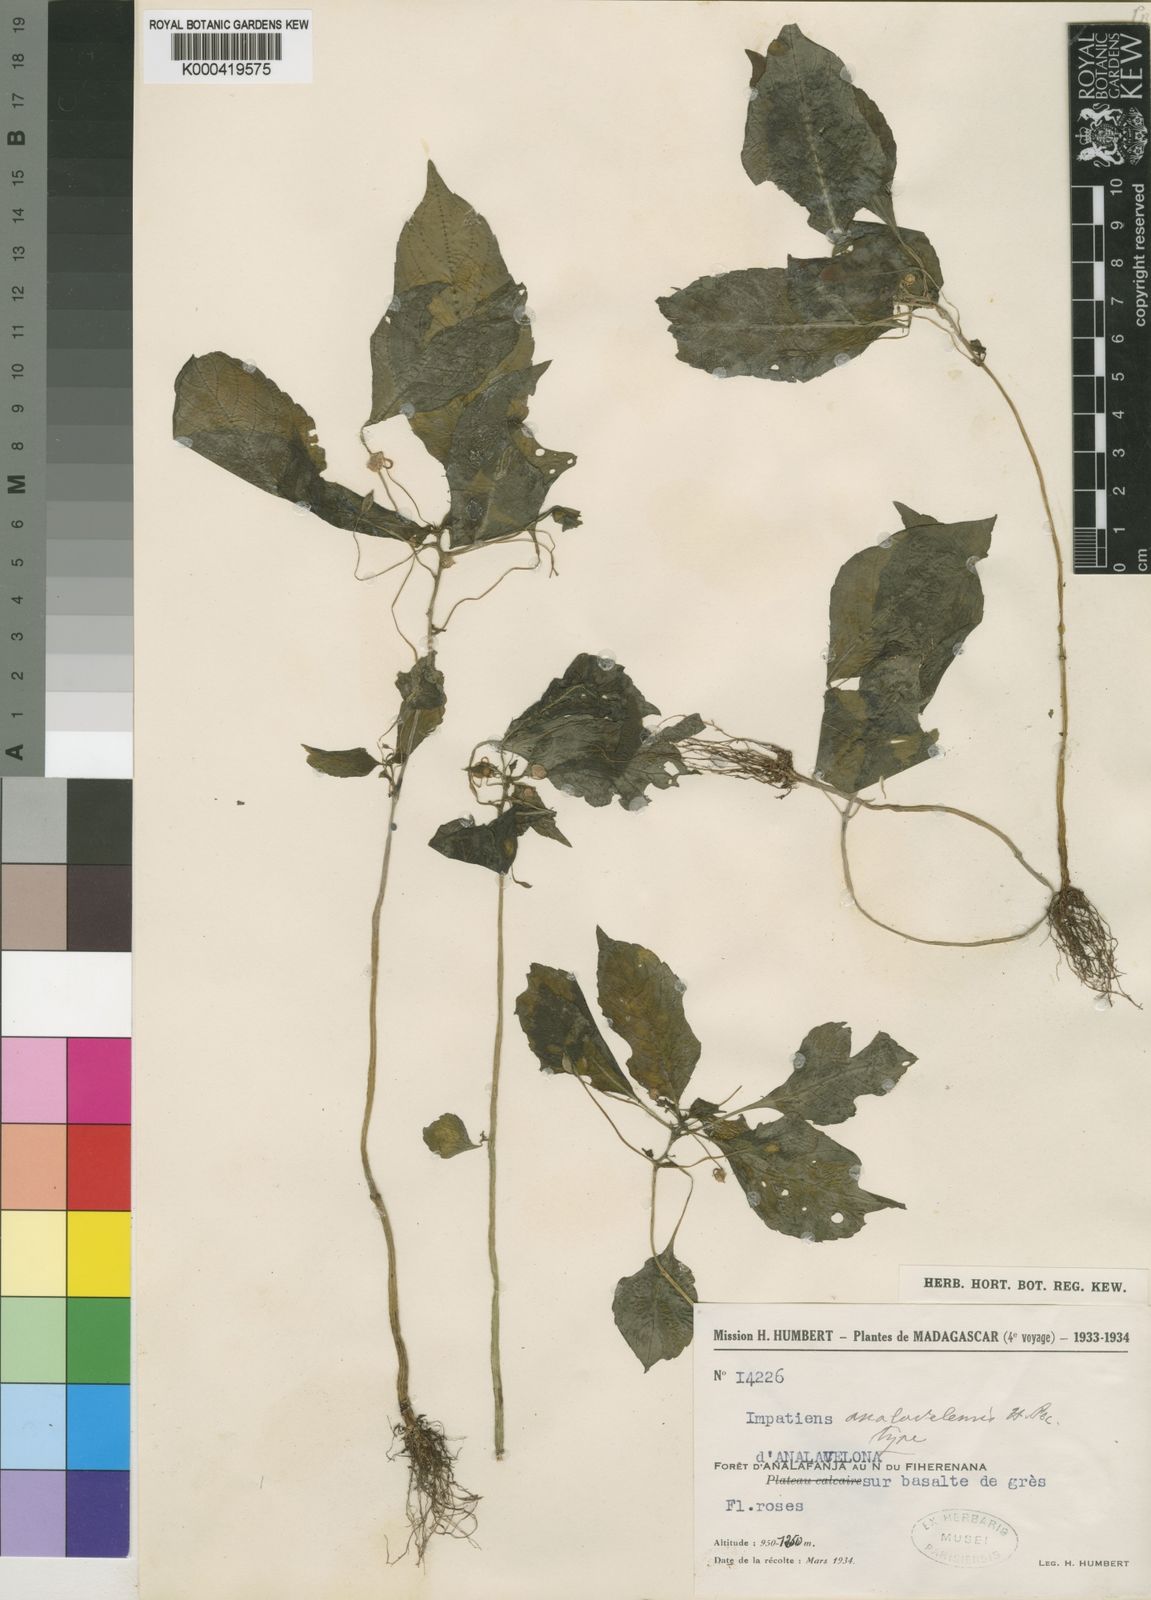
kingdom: Plantae
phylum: Tracheophyta
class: Magnoliopsida
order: Ericales
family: Balsaminaceae
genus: Impatiens
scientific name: Impatiens analavelensis
